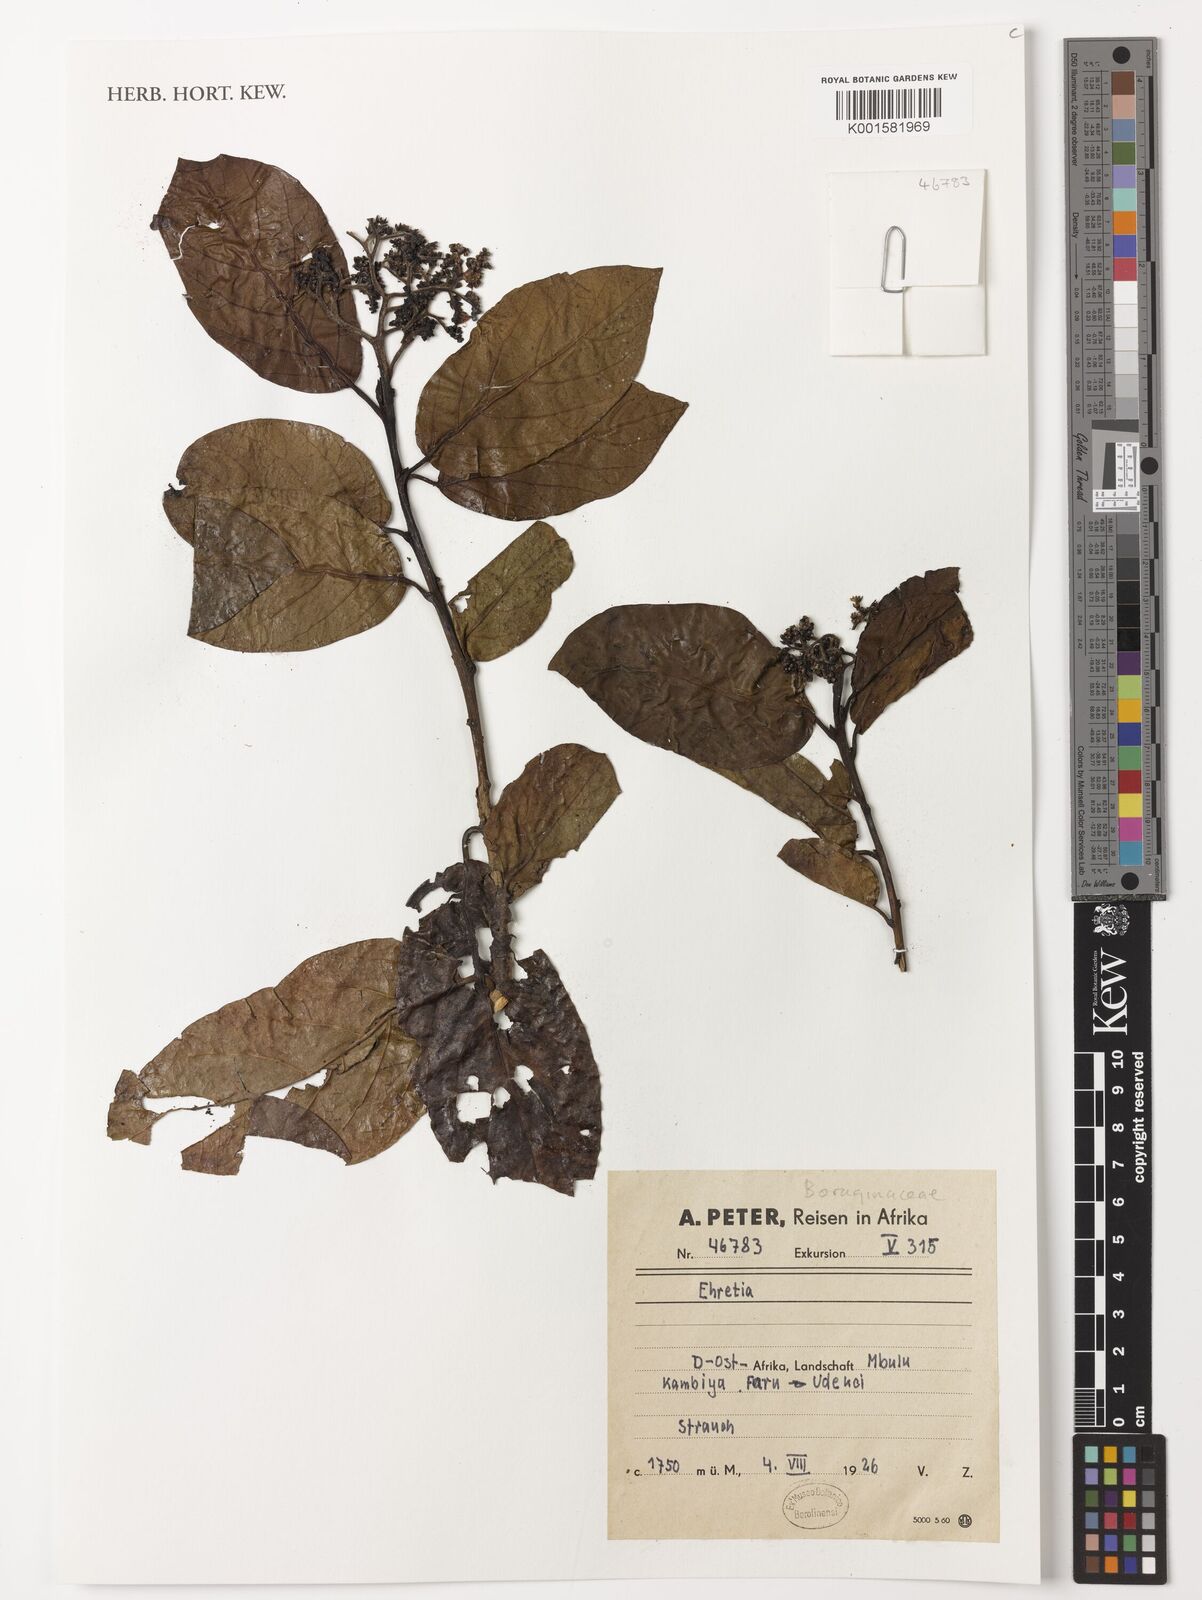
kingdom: Plantae
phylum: Tracheophyta
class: Magnoliopsida
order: Boraginales
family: Ehretiaceae
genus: Ehretia
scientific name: Ehretia
